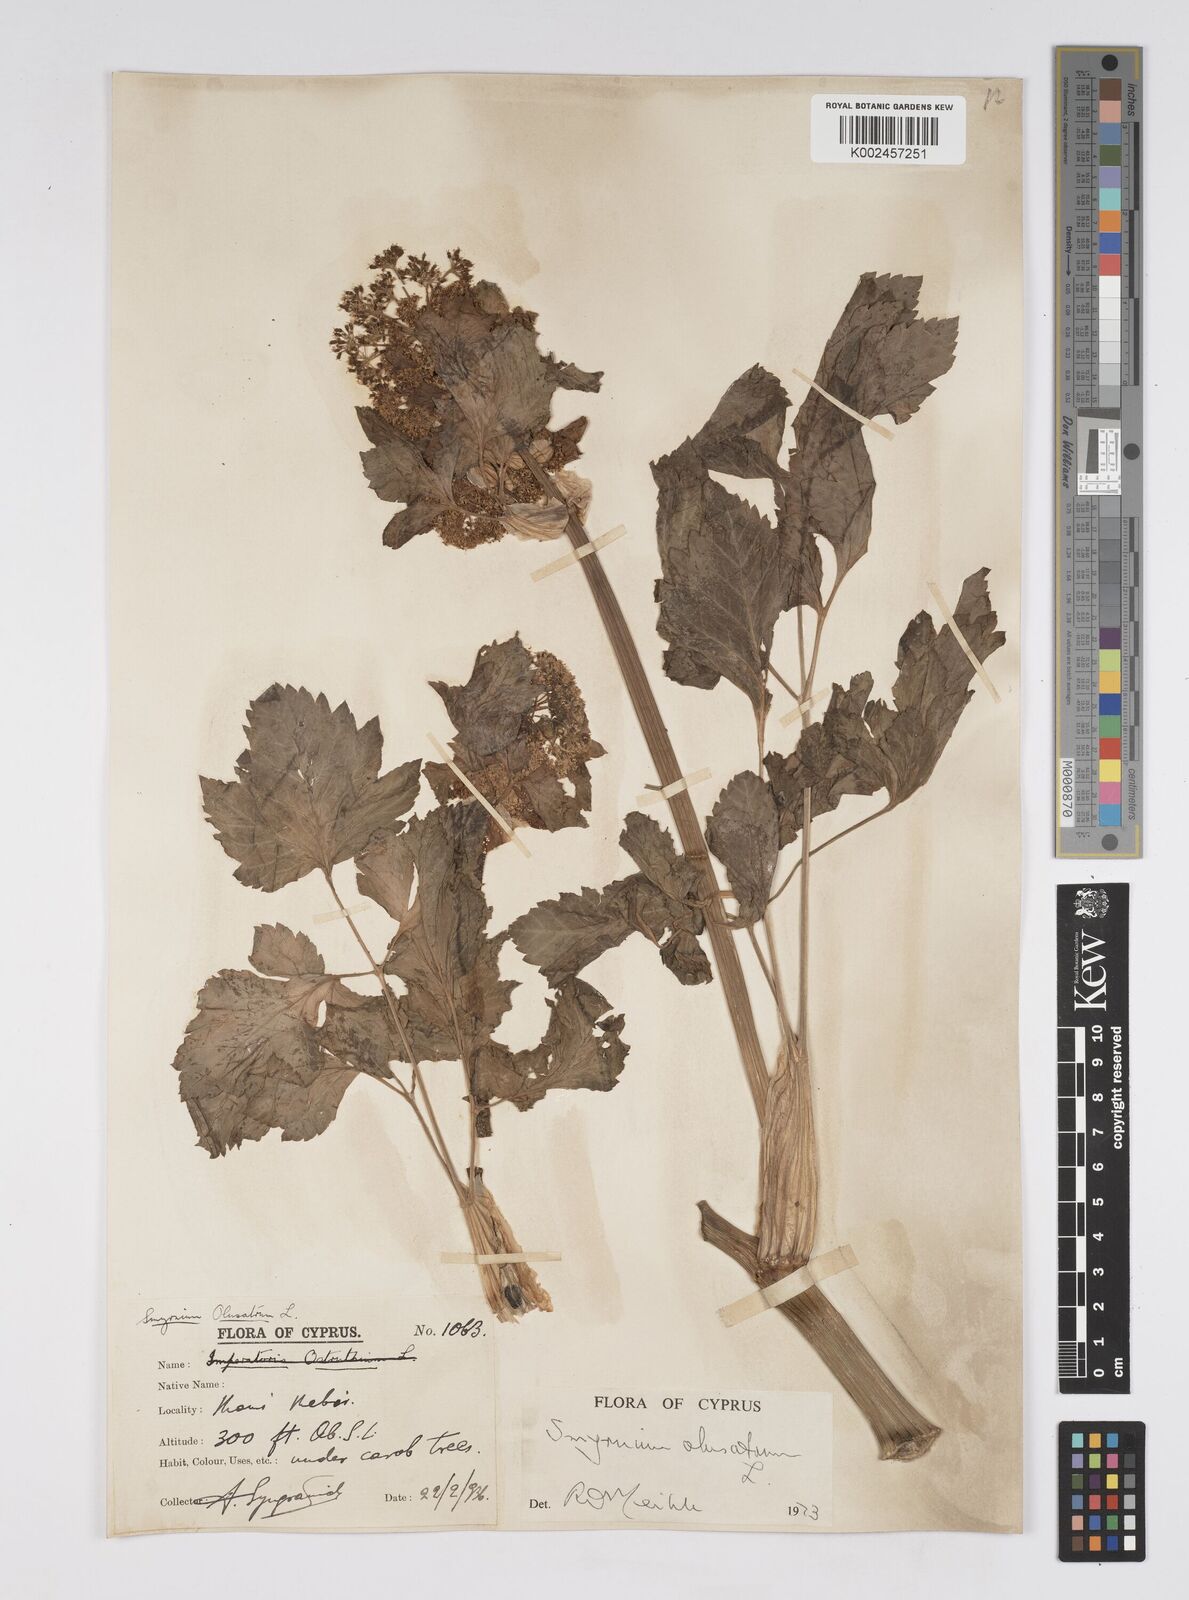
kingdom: Plantae
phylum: Tracheophyta
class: Magnoliopsida
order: Apiales
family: Apiaceae
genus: Smyrnium
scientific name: Smyrnium olusatrum
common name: Alexanders
